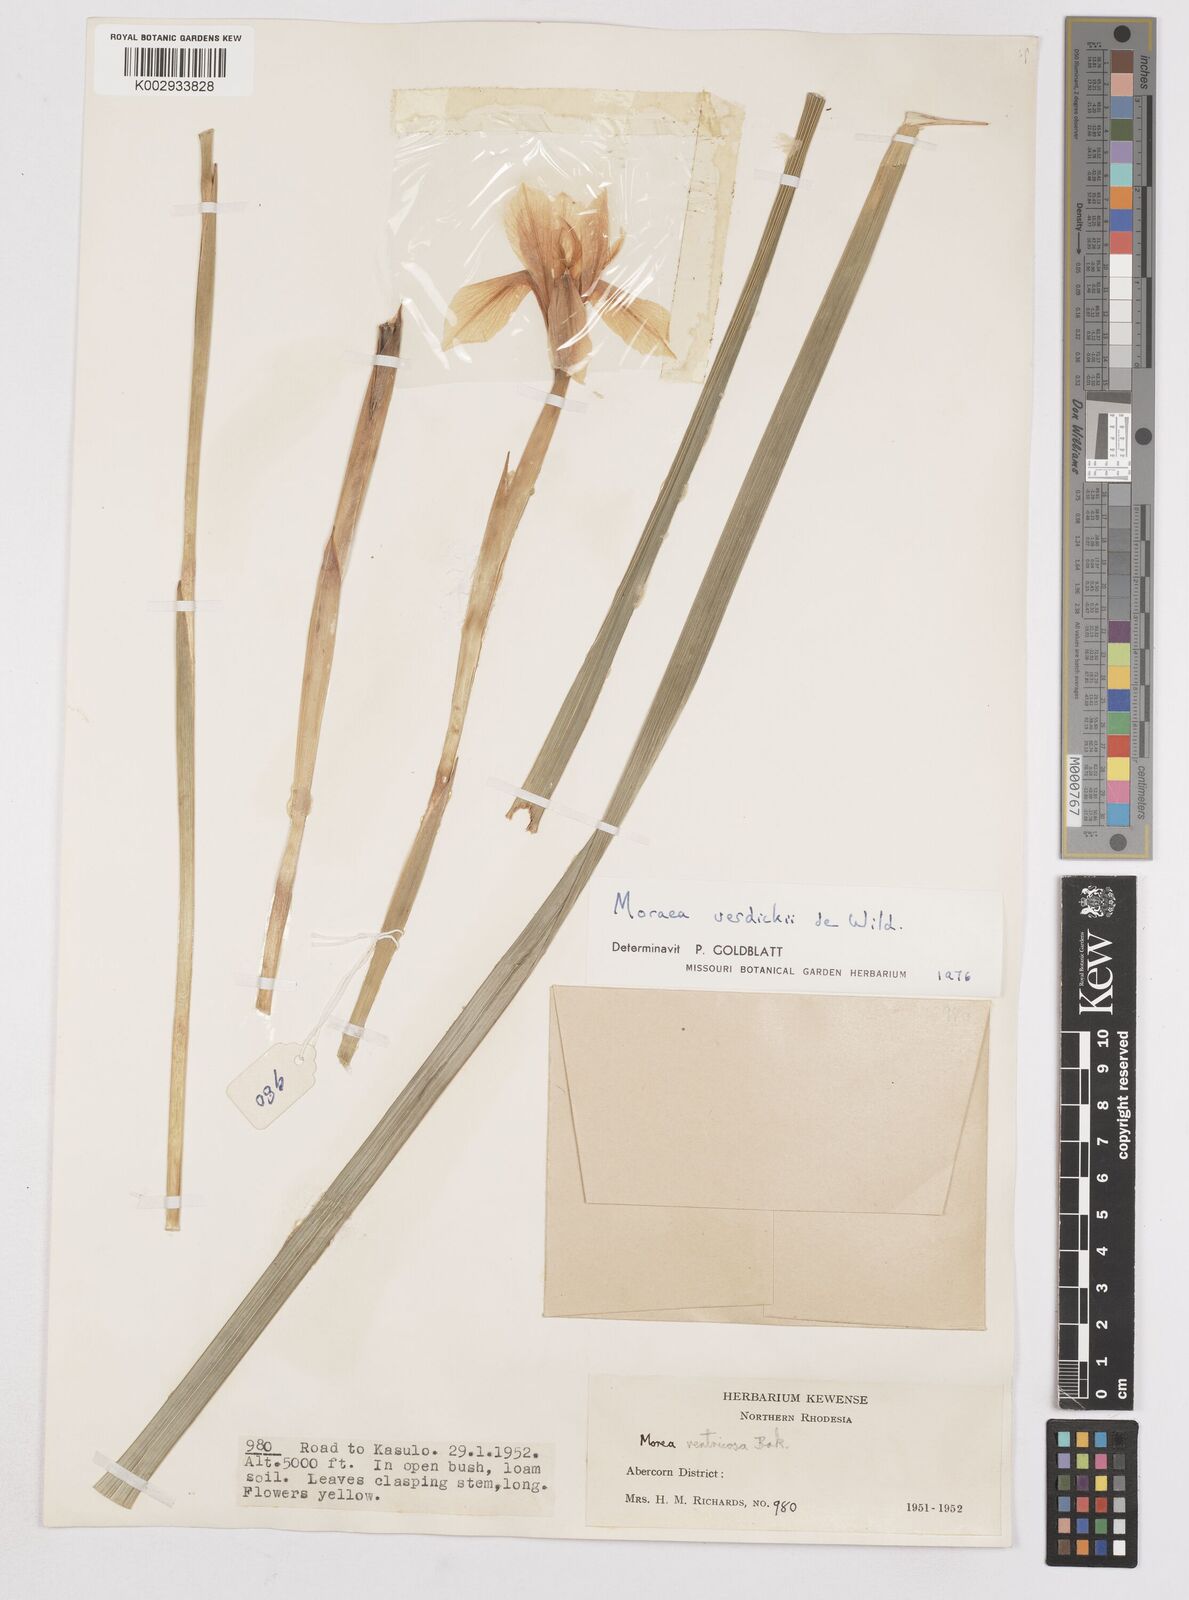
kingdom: Plantae
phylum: Tracheophyta
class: Liliopsida
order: Asparagales
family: Iridaceae
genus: Moraea
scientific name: Moraea verdickii
